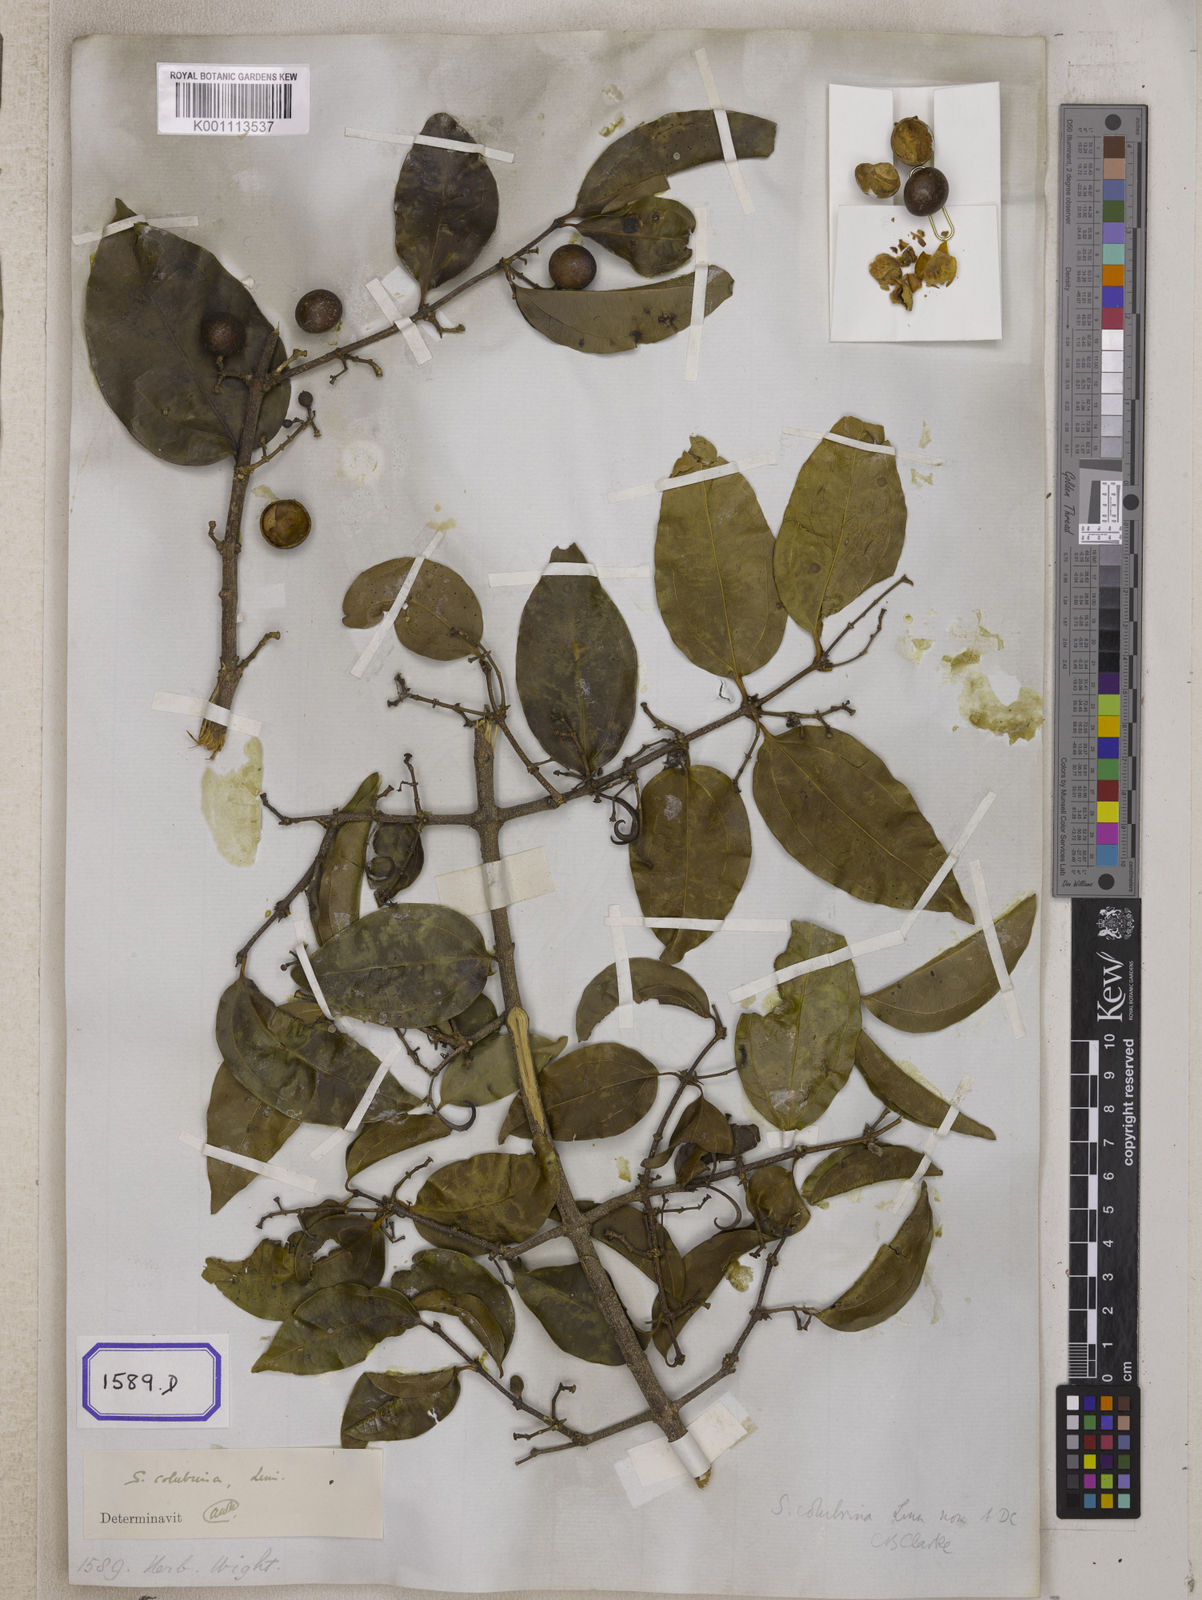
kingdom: Plantae
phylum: Tracheophyta
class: Magnoliopsida
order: Gentianales
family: Loganiaceae
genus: Strychnos
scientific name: Strychnos
